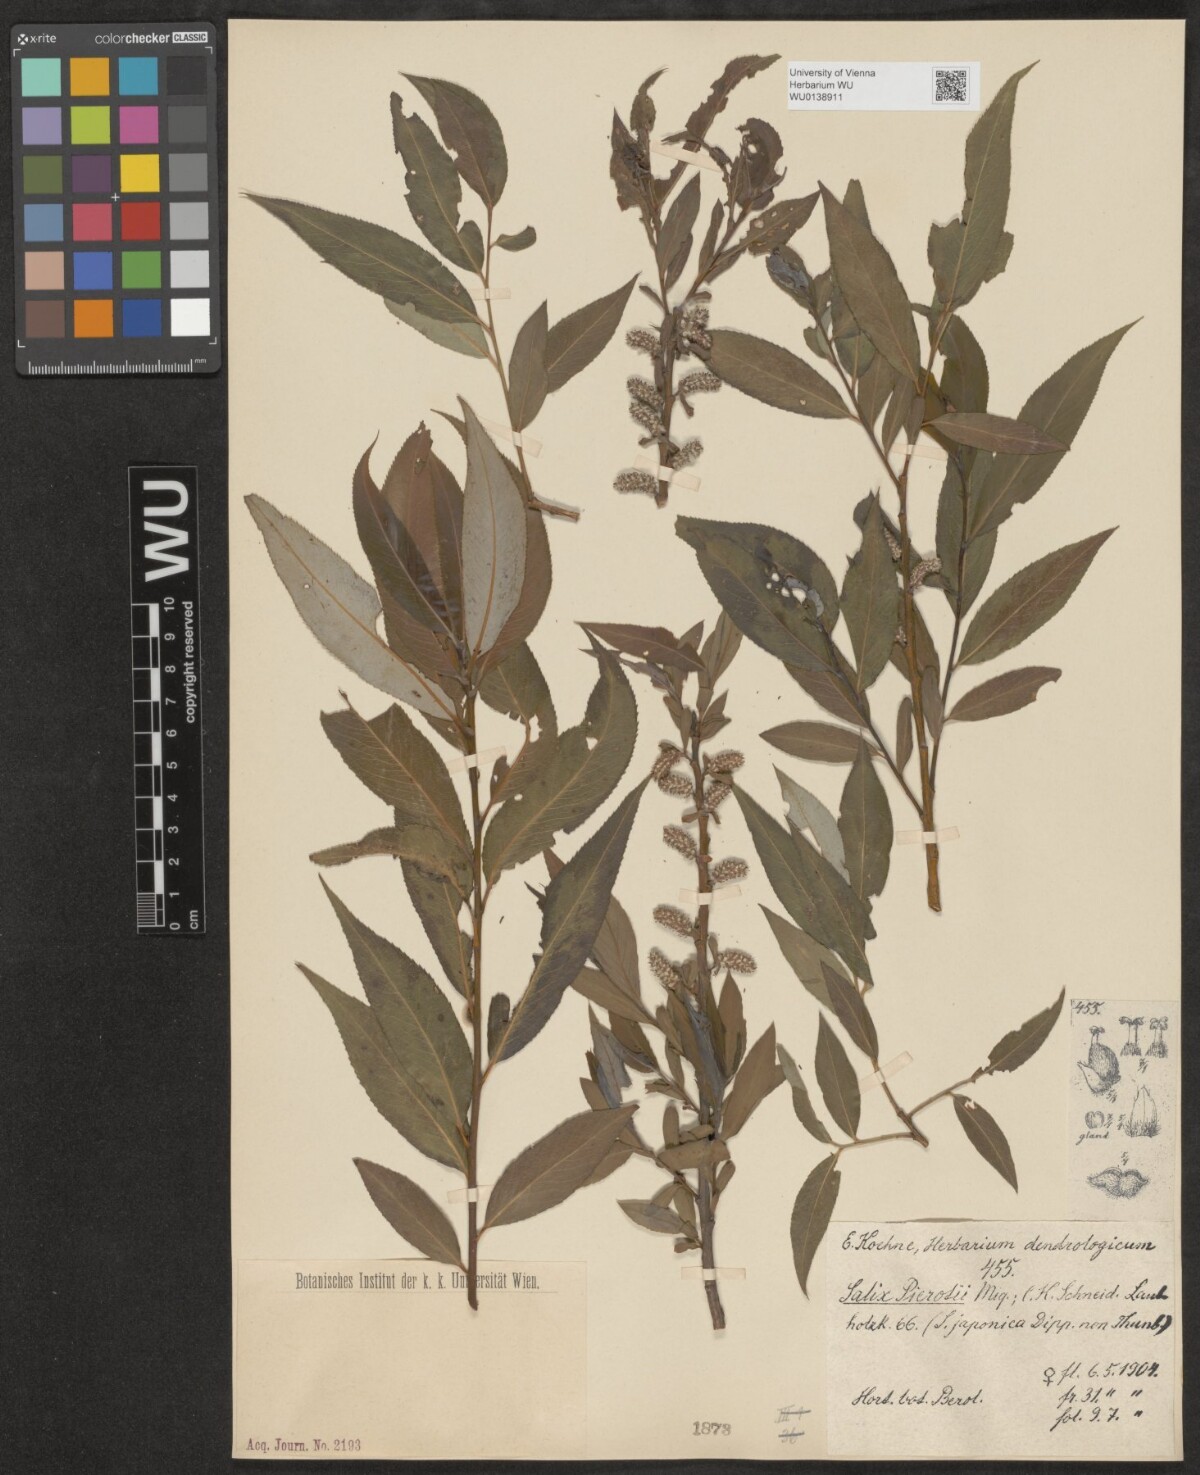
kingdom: Plantae
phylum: Tracheophyta
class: Magnoliopsida
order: Malpighiales
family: Salicaceae
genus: Salix
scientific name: Salix pierotii
